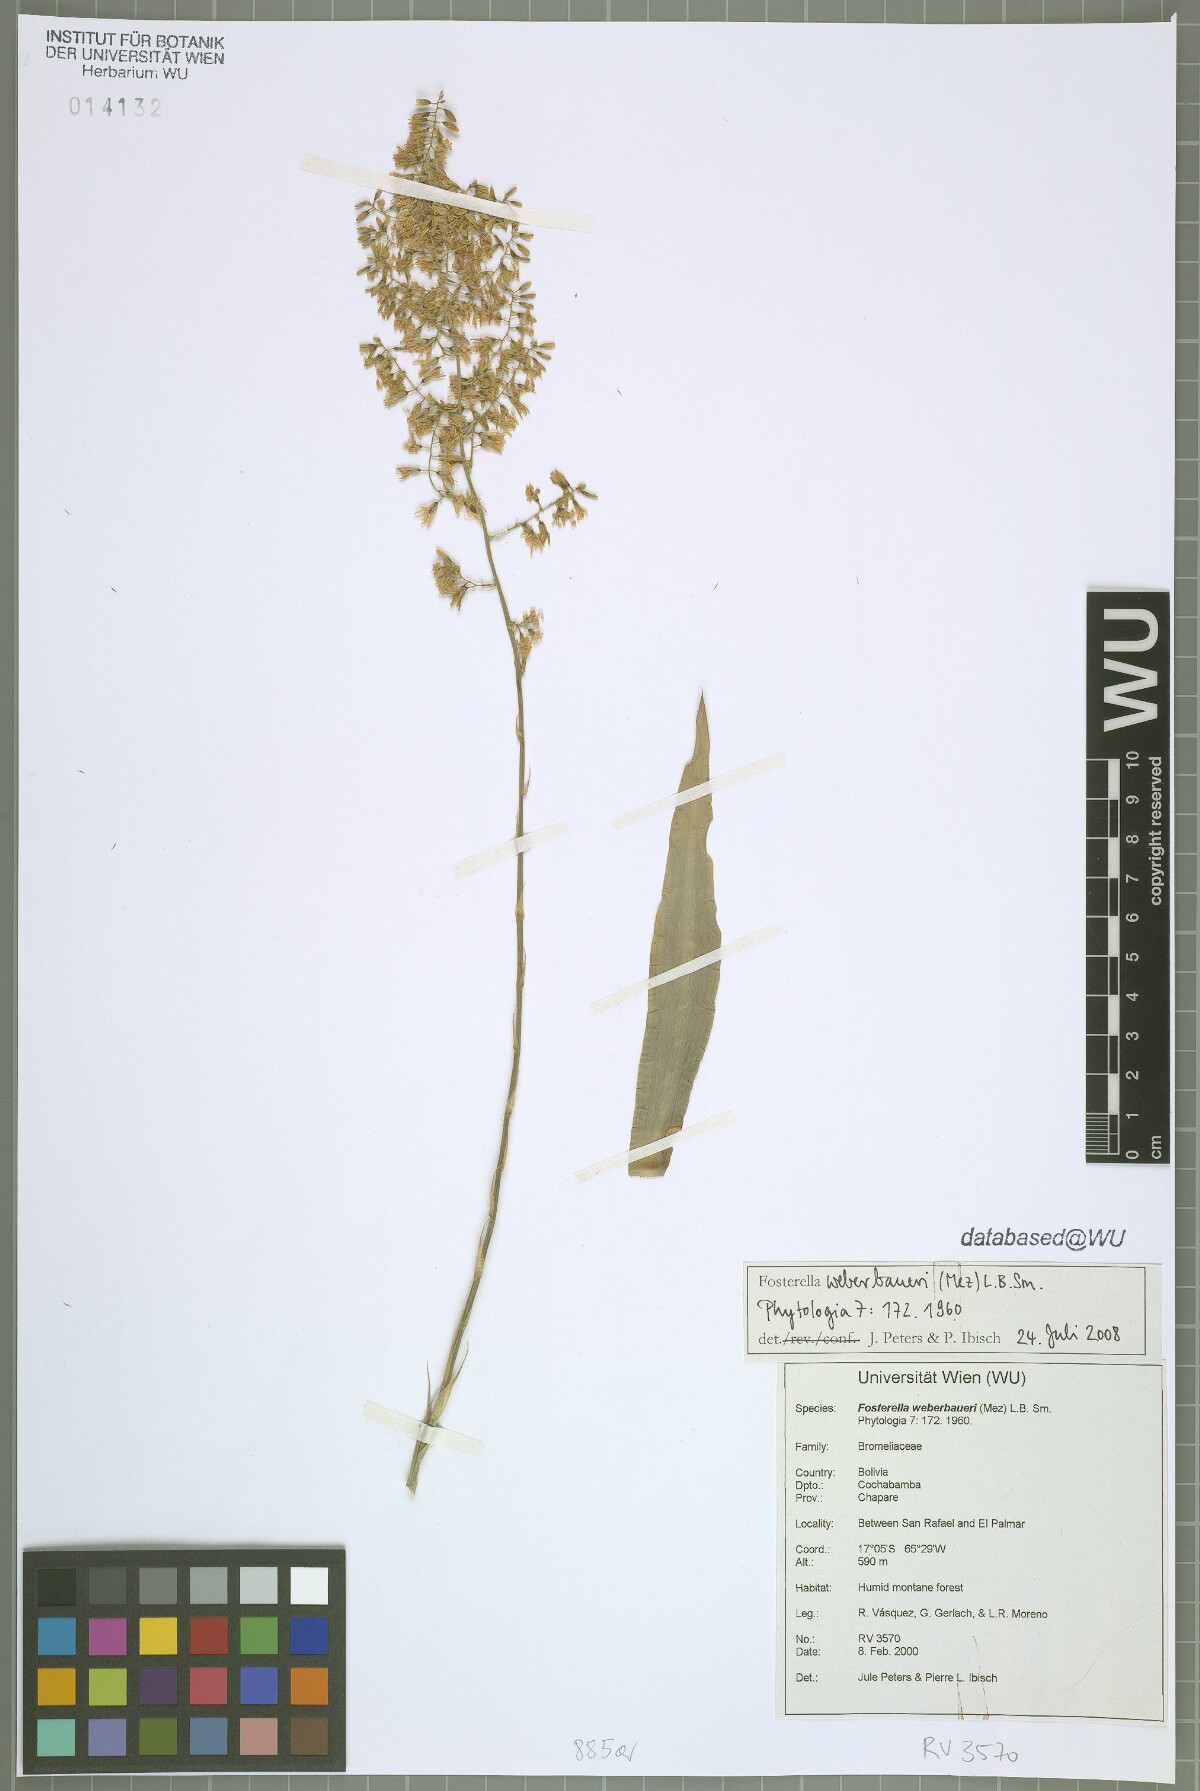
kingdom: Plantae
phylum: Tracheophyta
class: Liliopsida
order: Poales
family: Bromeliaceae
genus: Fosterella
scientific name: Fosterella weberbaueri
